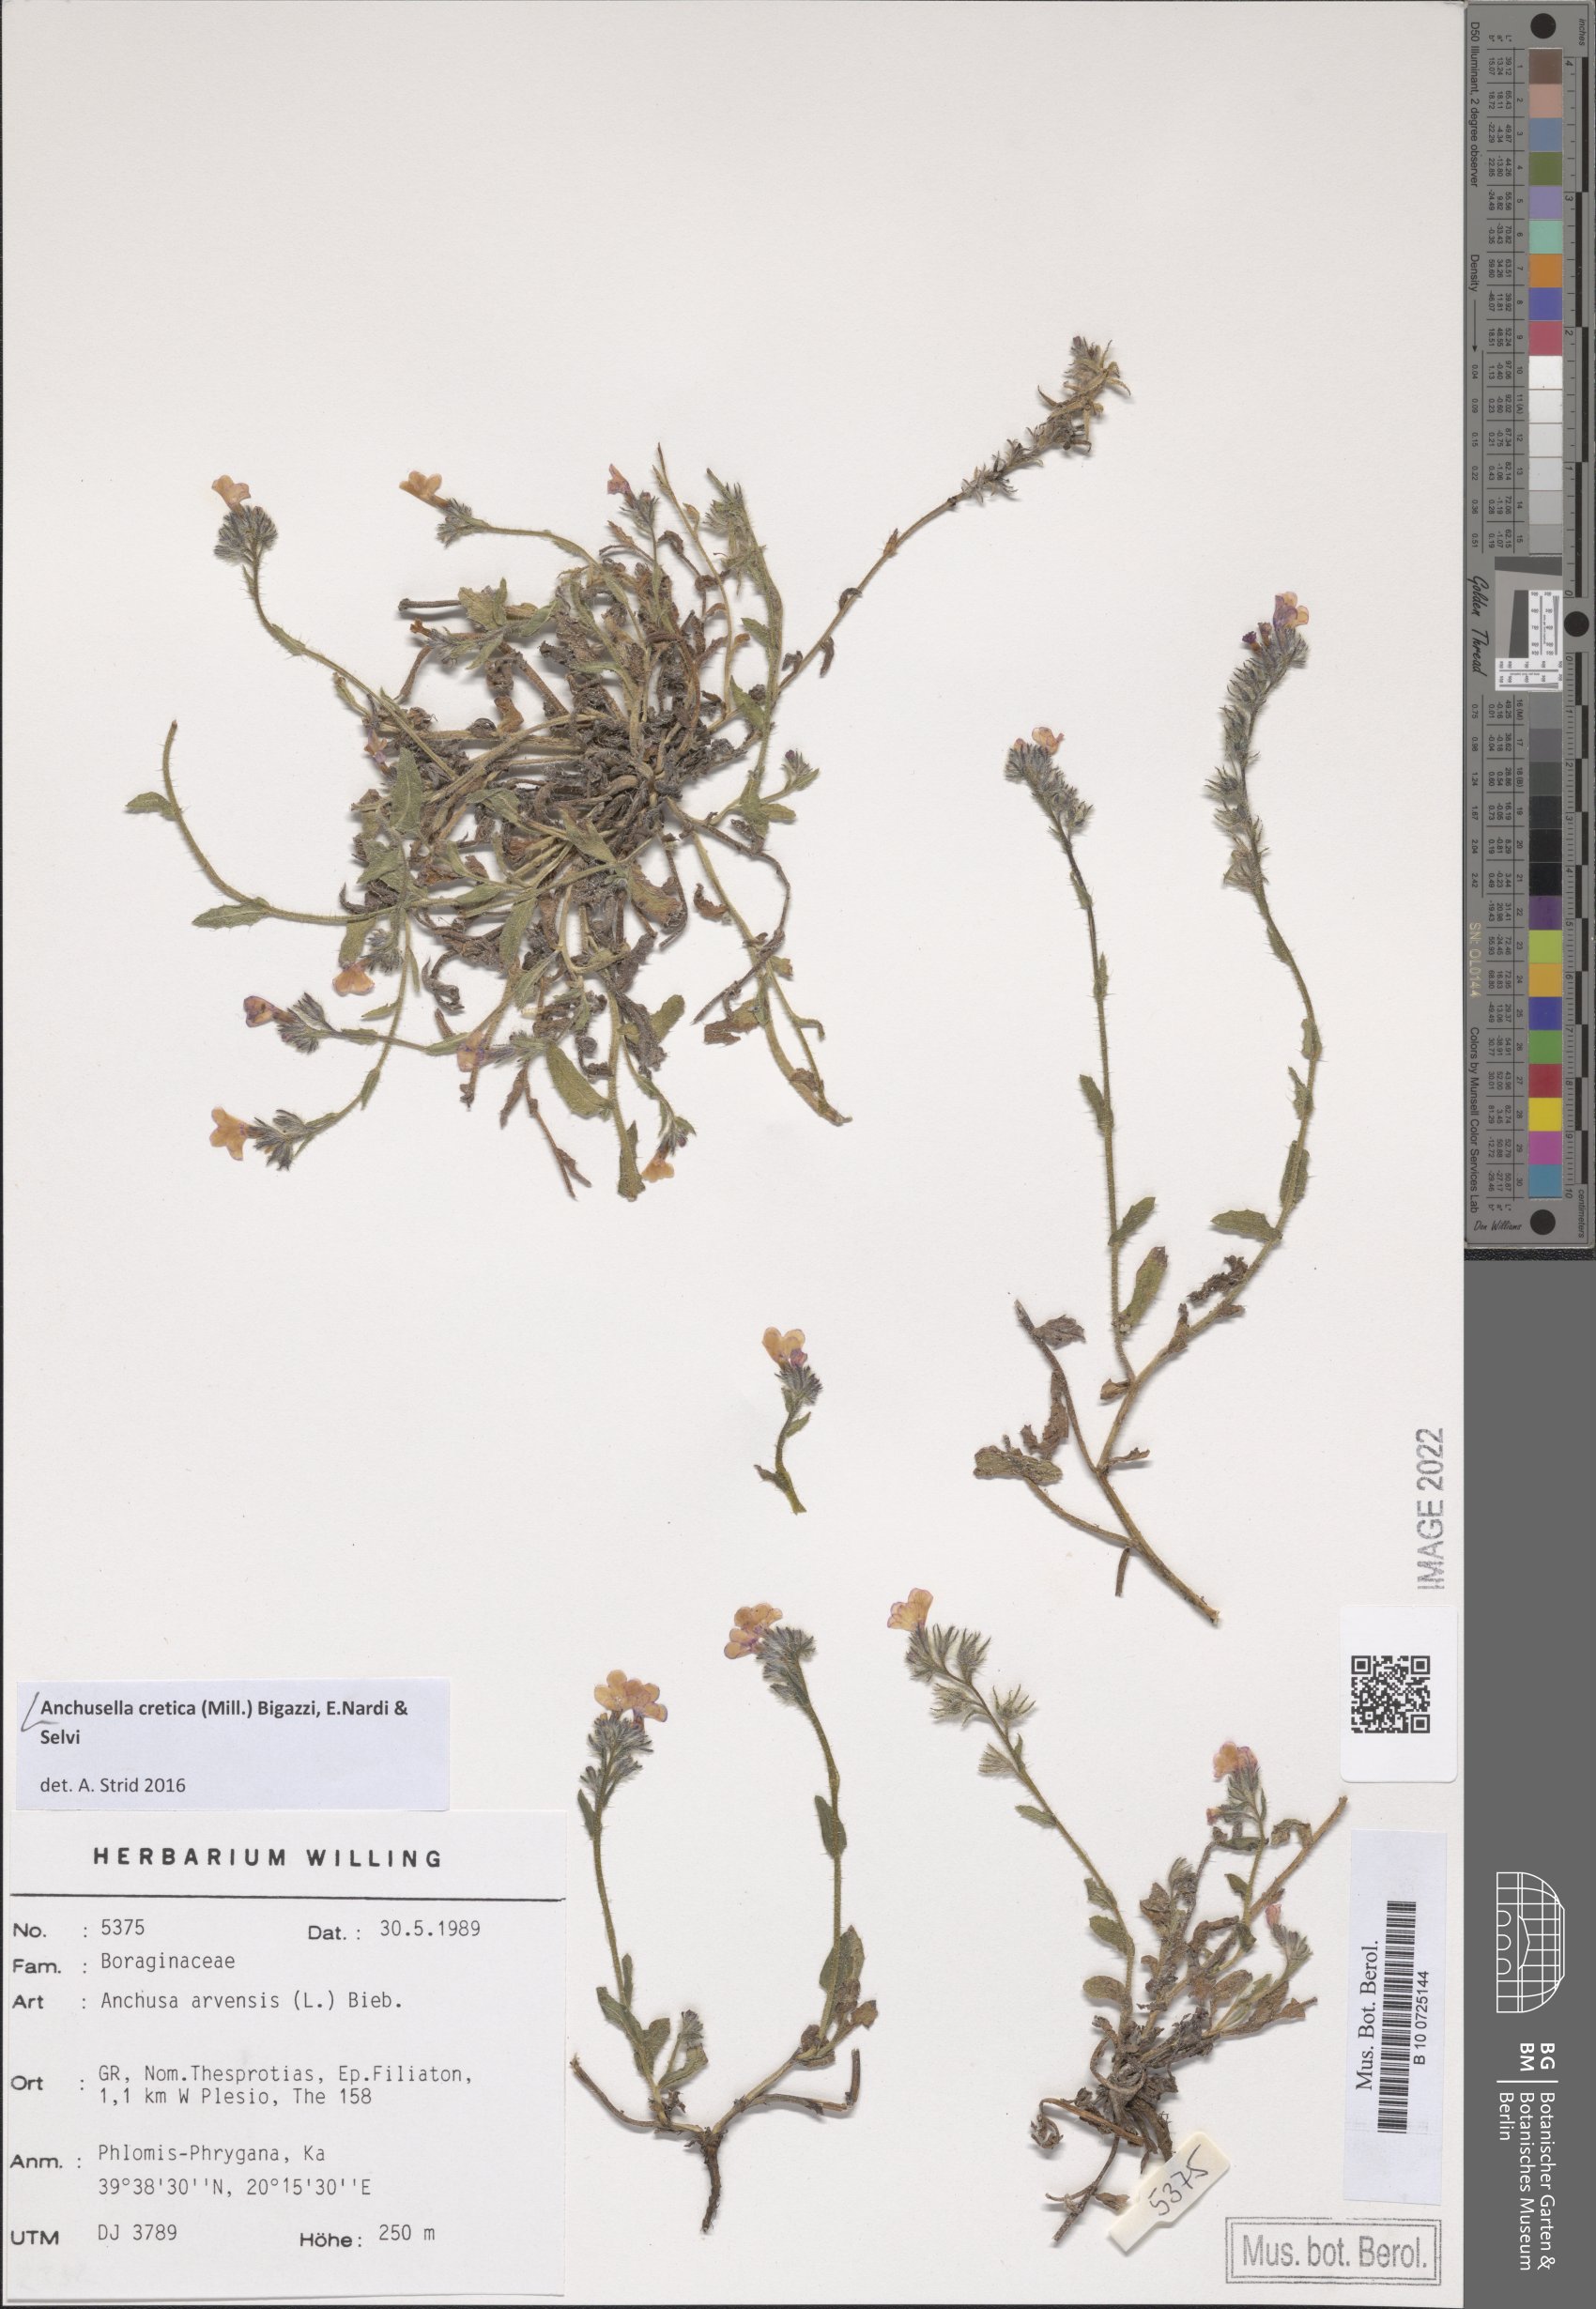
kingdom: Plantae
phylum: Tracheophyta
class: Magnoliopsida
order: Boraginales
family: Boraginaceae
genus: Anchusella
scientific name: Anchusella cretica
